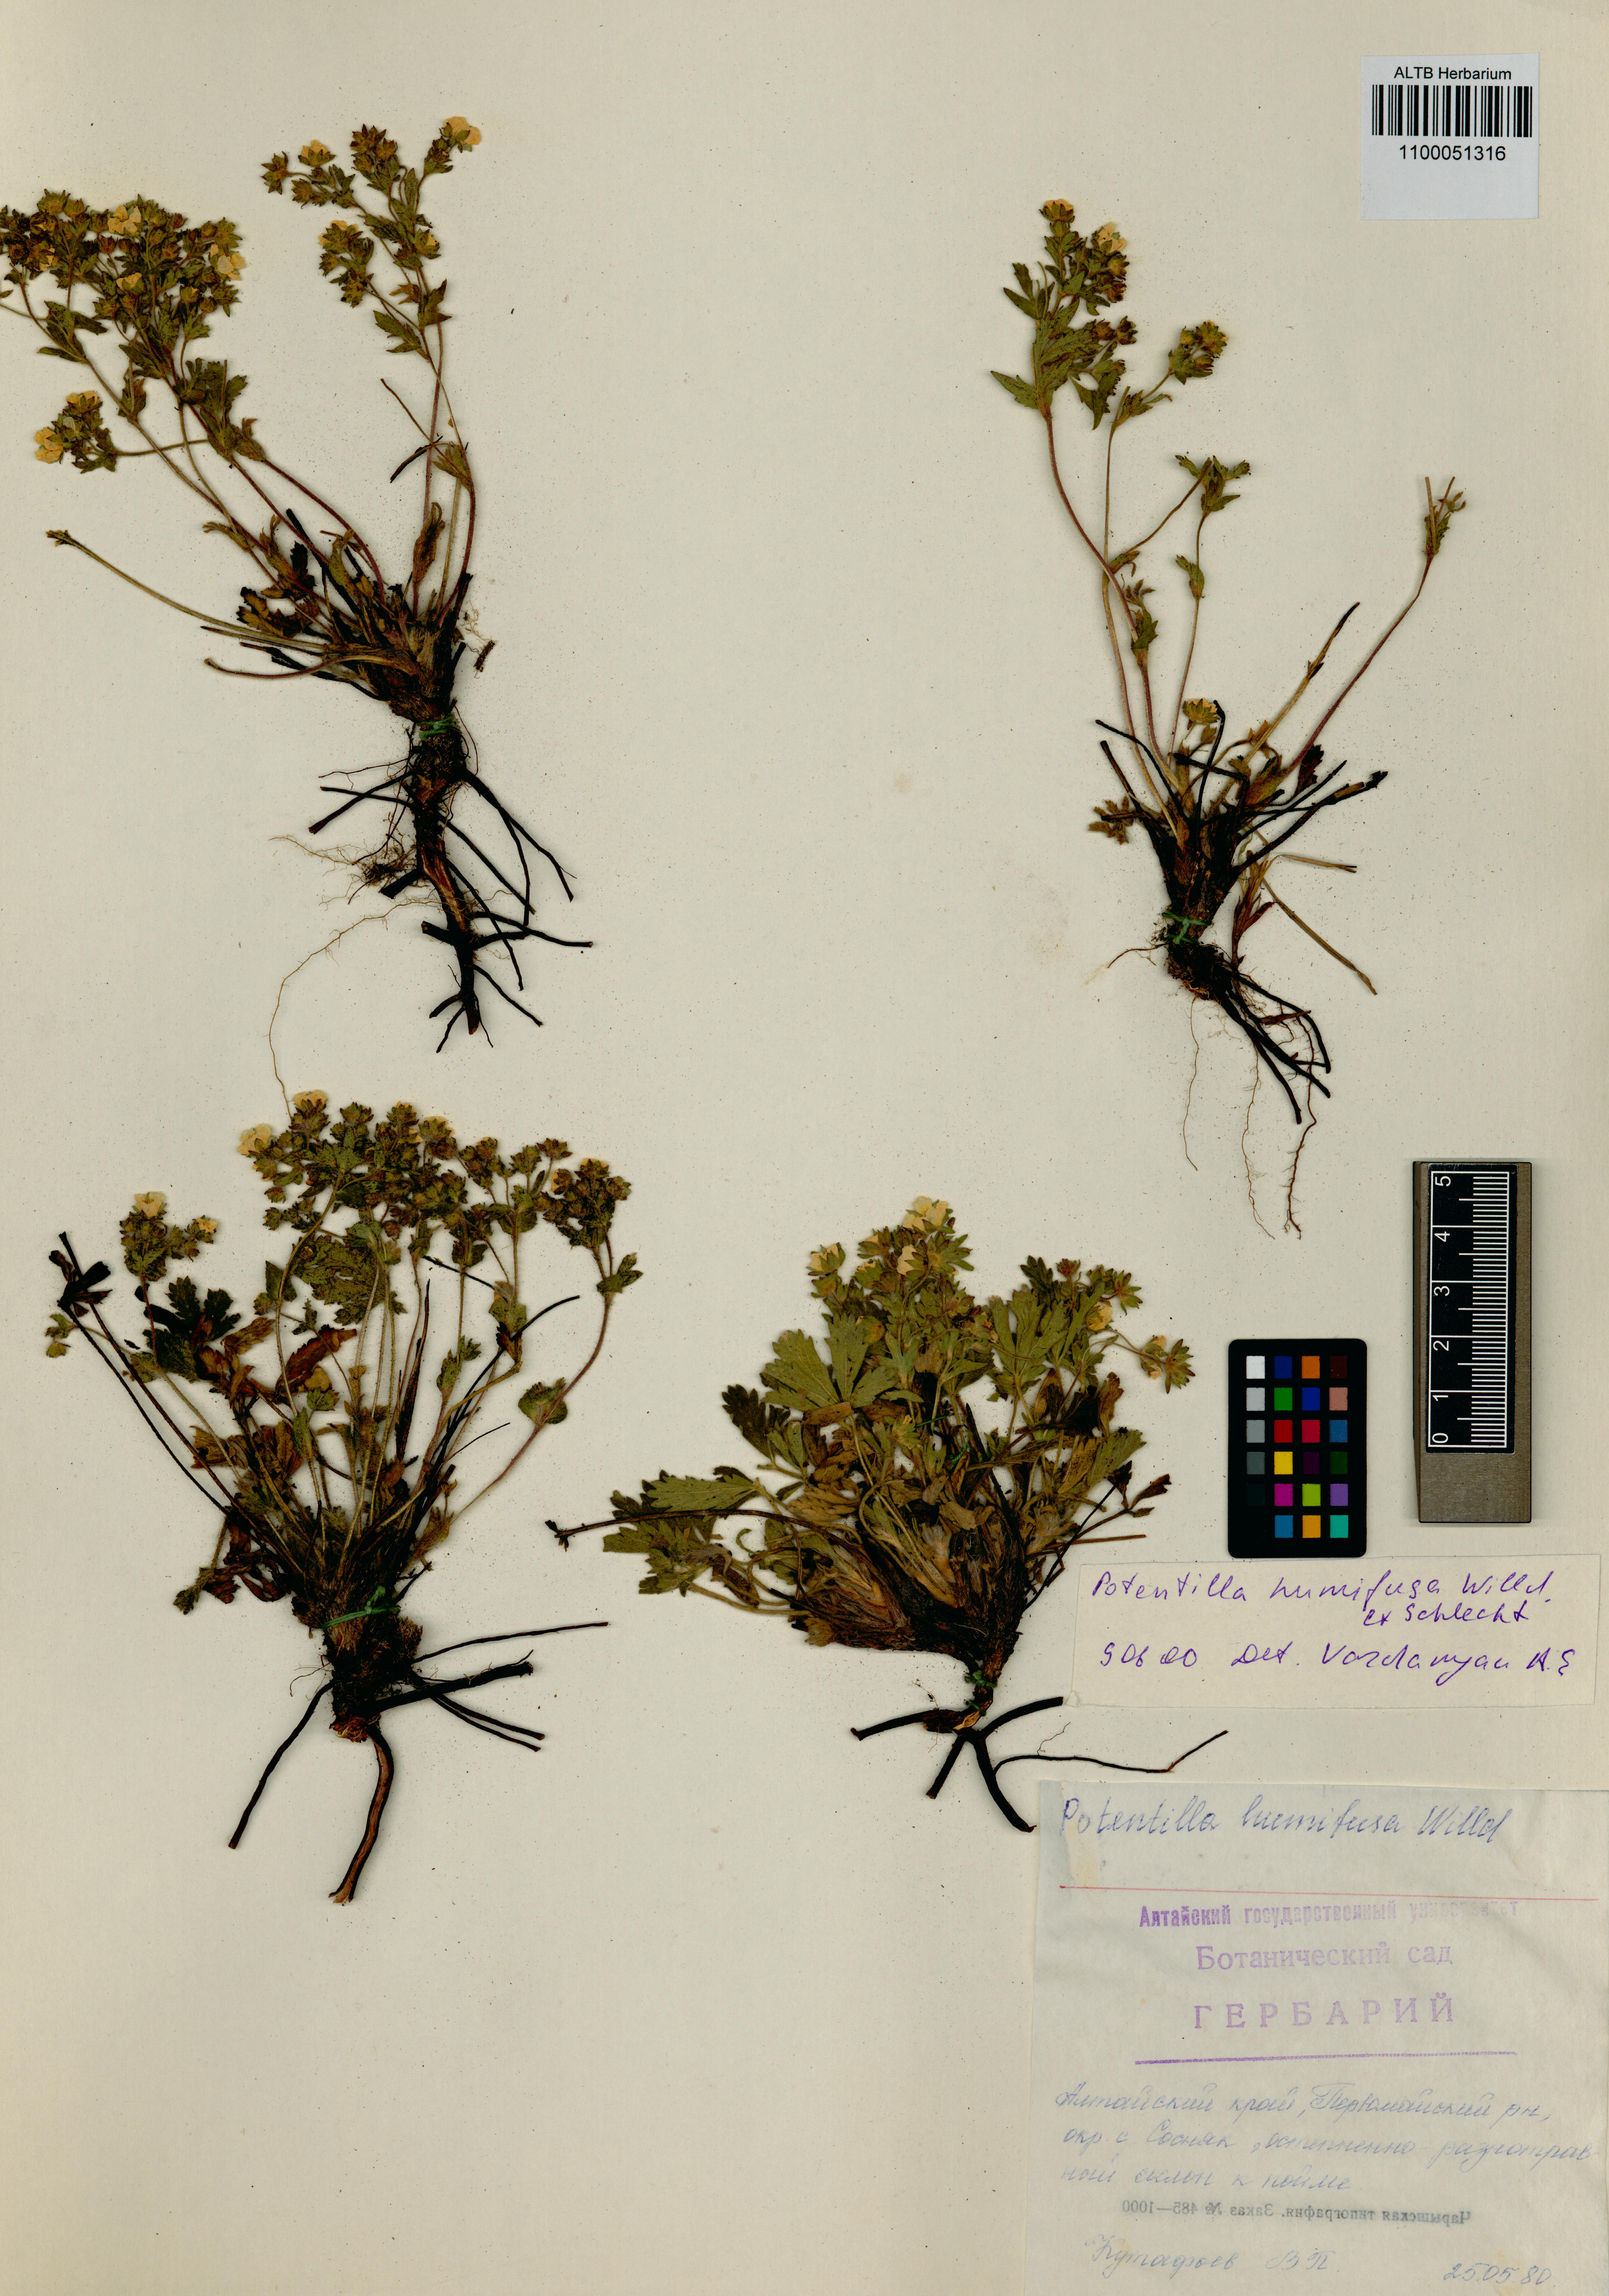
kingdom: Plantae
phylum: Tracheophyta
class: Magnoliopsida
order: Rosales
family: Rosaceae
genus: Potentilla
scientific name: Potentilla humifusa
